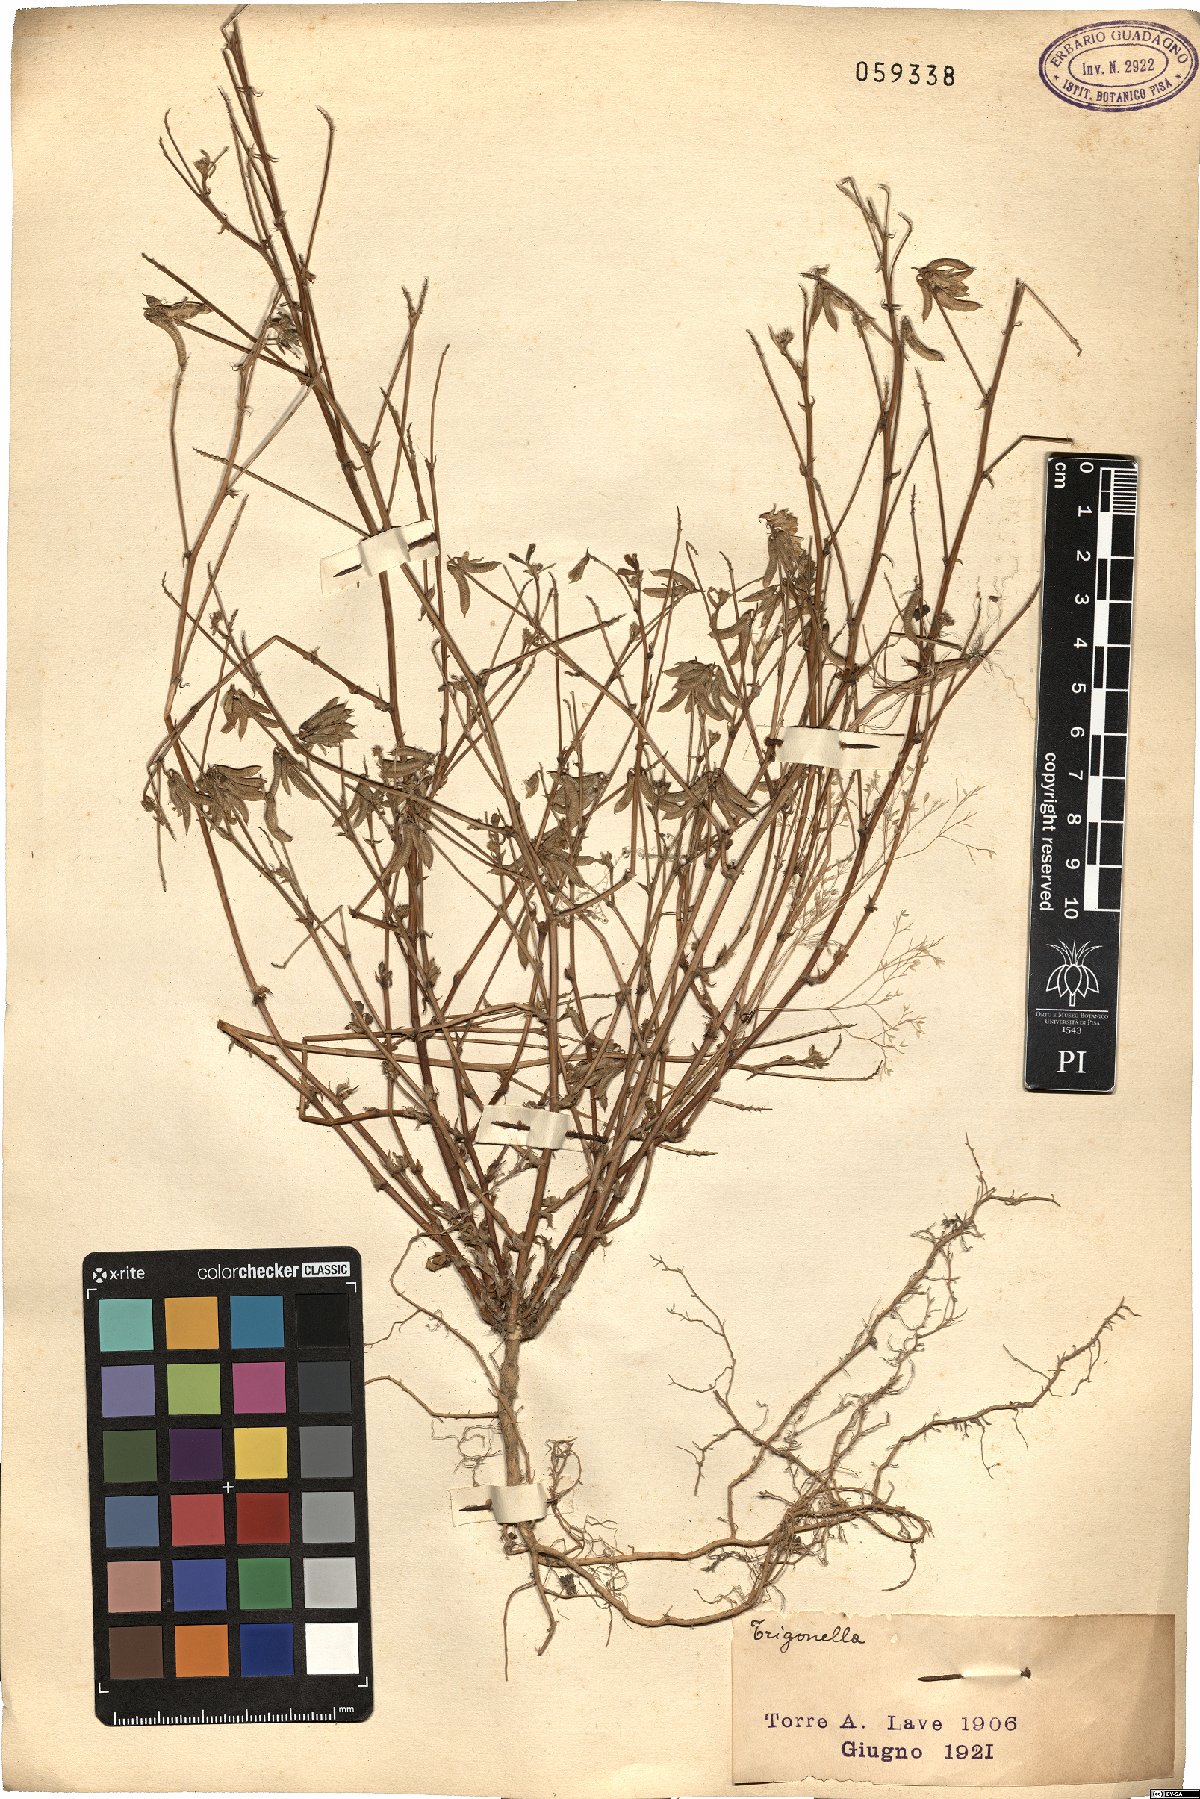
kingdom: Plantae
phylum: Tracheophyta
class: Magnoliopsida
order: Fabales
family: Fabaceae
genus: Trigonella
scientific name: Trigonella
